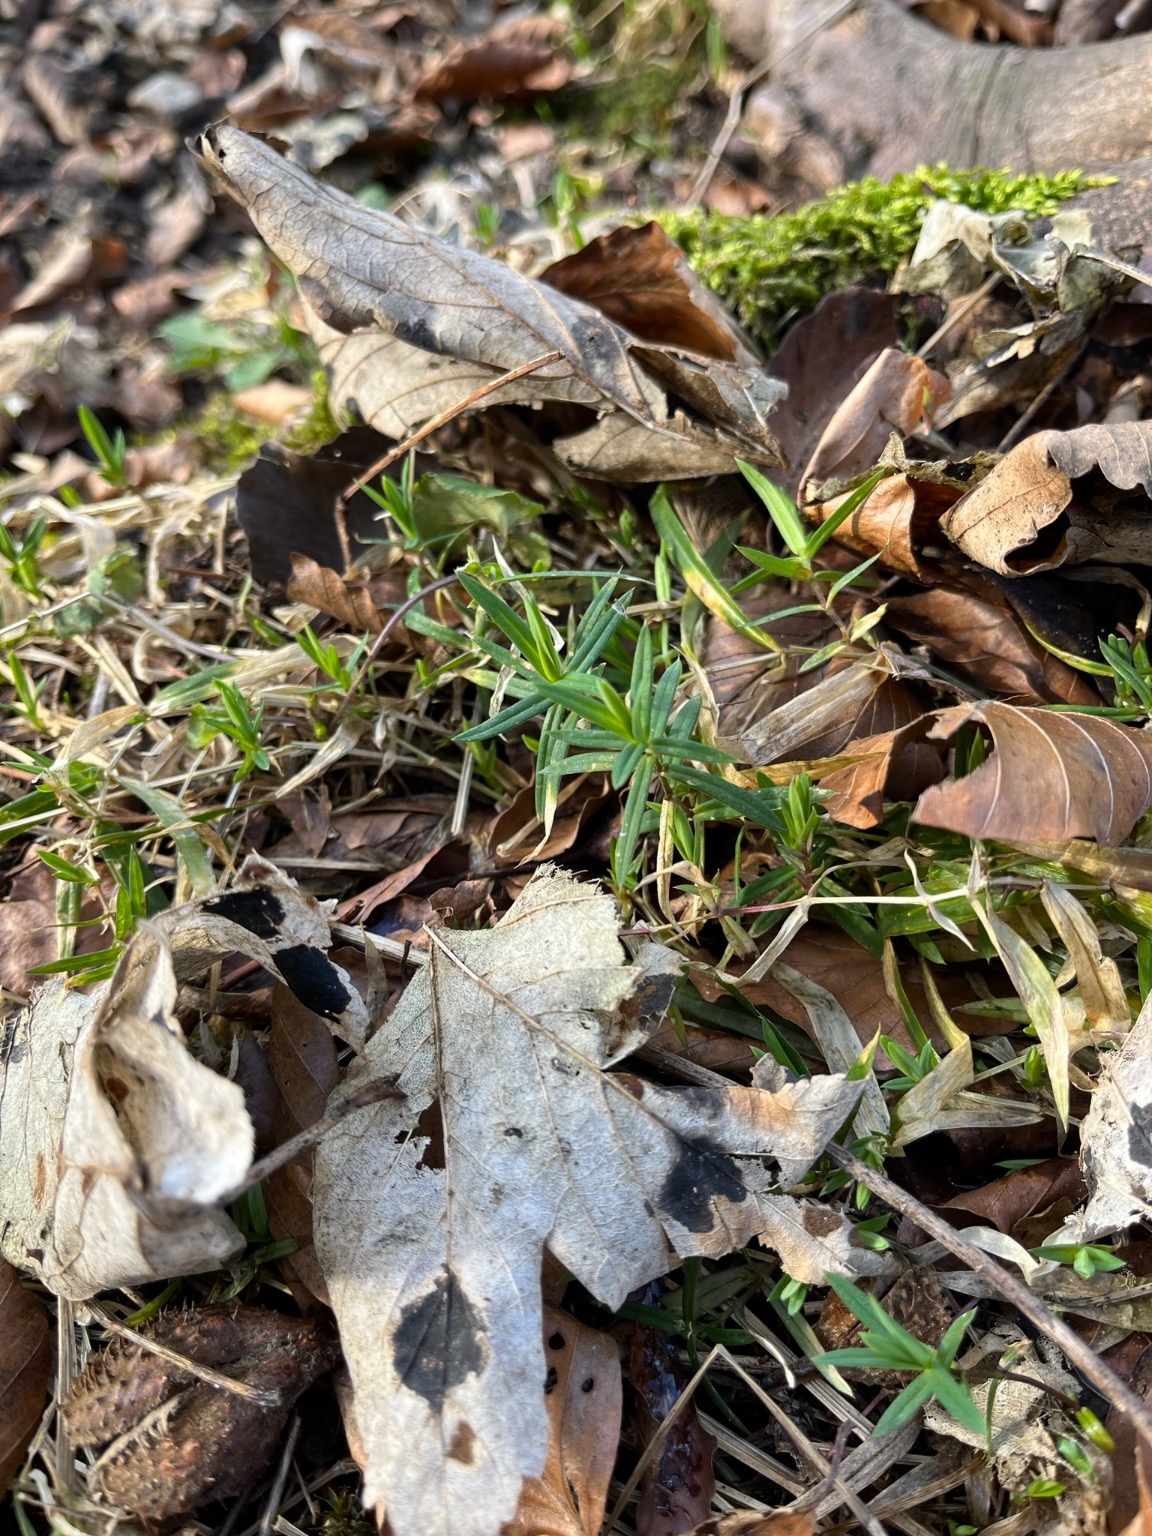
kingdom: Plantae
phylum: Tracheophyta
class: Magnoliopsida
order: Caryophyllales
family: Caryophyllaceae
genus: Rabelera
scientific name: Rabelera holostea
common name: Stor fladstjerne
